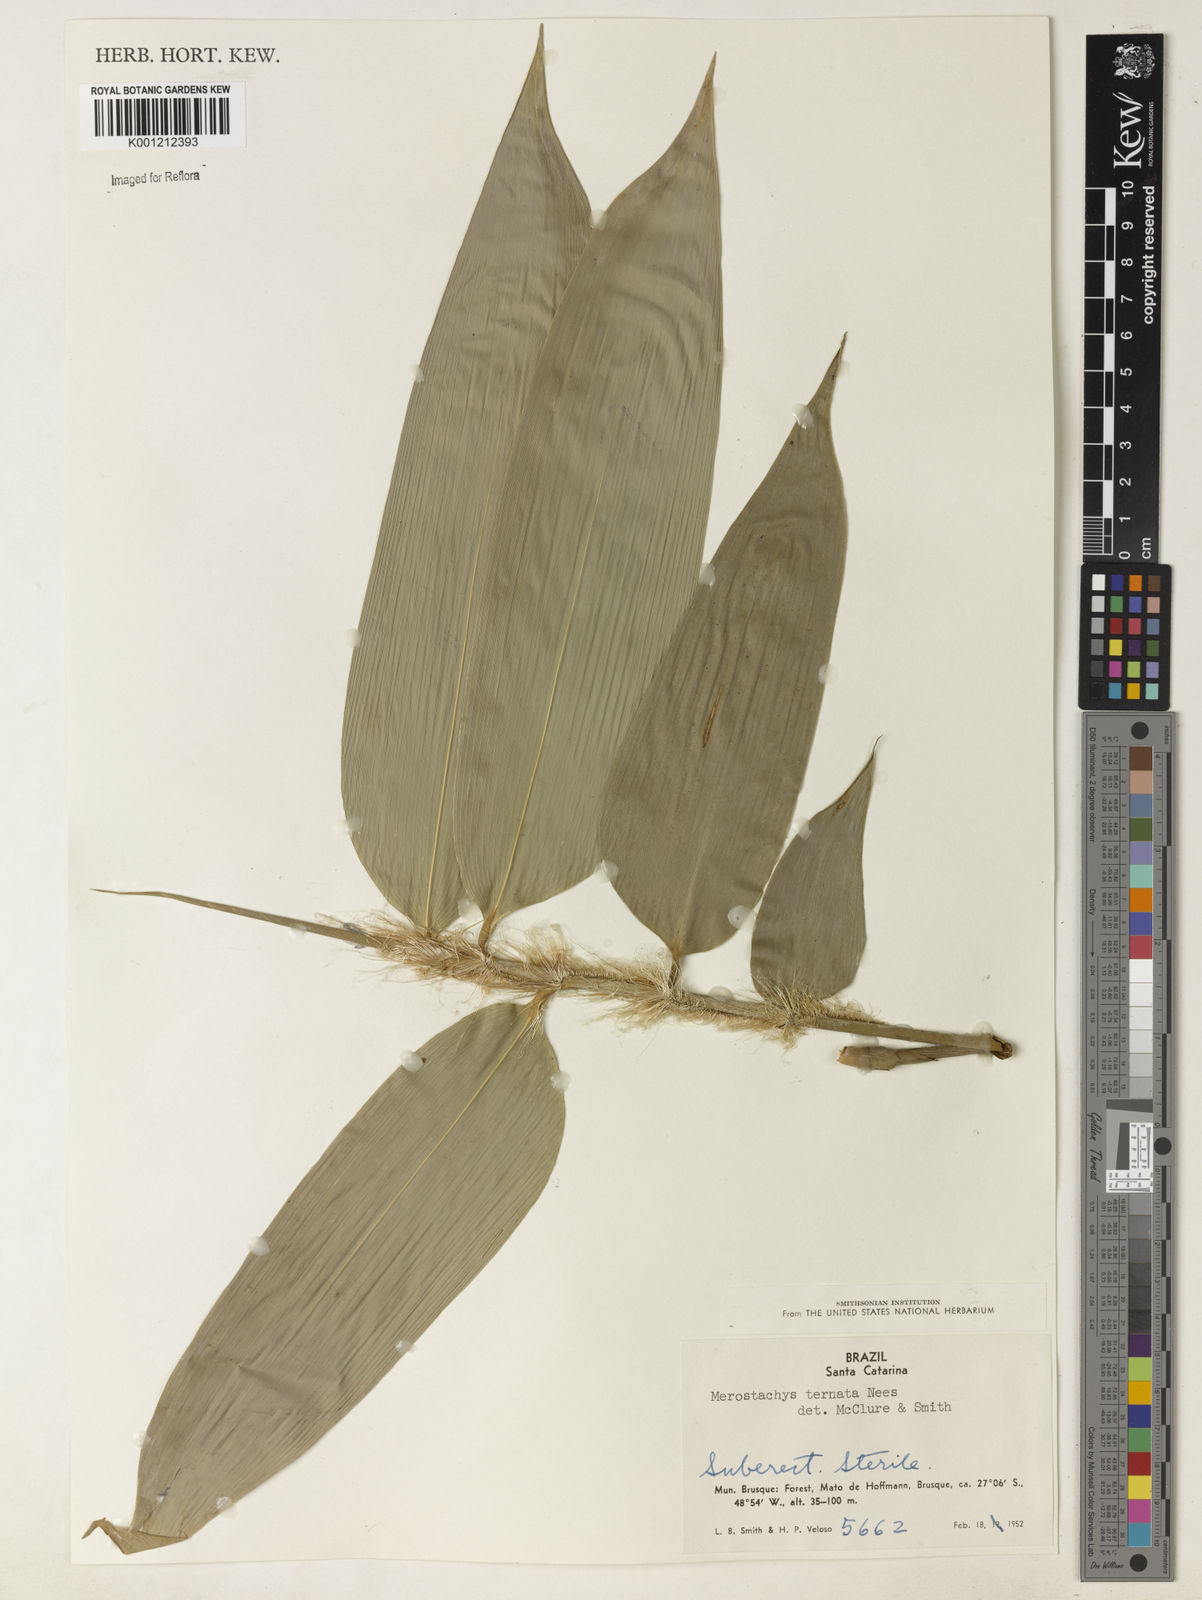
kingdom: Plantae
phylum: Tracheophyta
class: Liliopsida
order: Poales
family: Poaceae
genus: Merostachys
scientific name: Merostachys ternata
